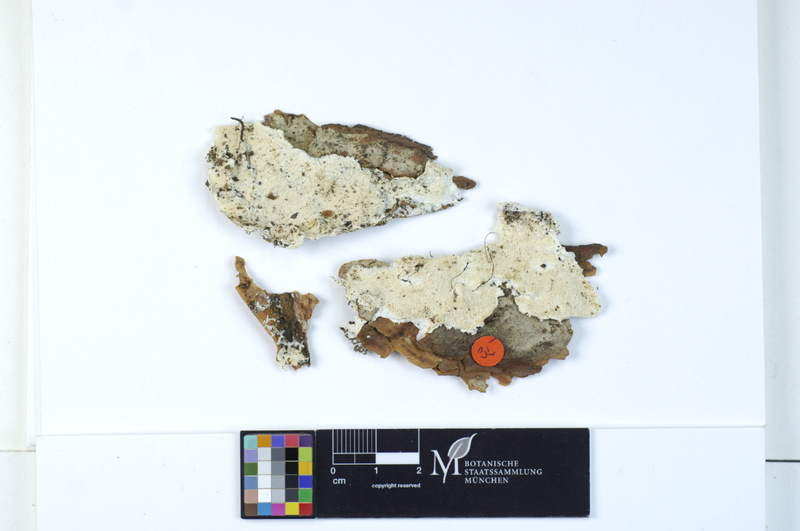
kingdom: Fungi
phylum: Basidiomycota
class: Agaricomycetes
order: Polyporales
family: Dacryobolaceae
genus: Postia
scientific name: Postia sericeomollis
